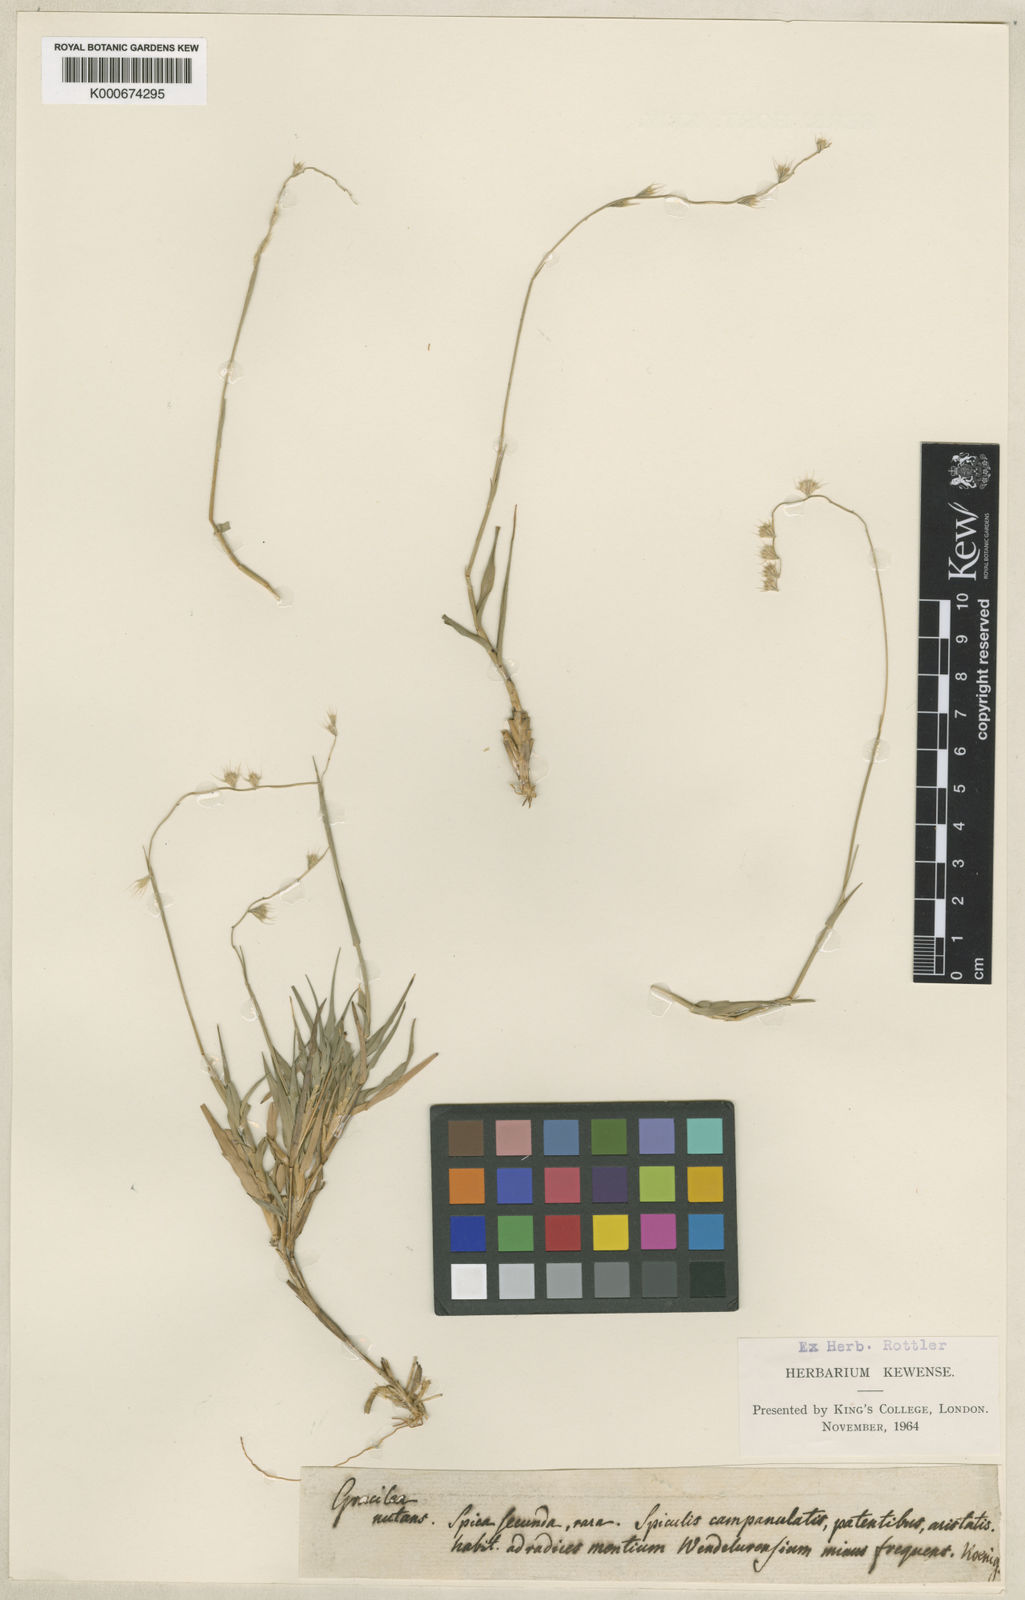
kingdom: Plantae
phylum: Tracheophyta
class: Liliopsida
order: Poales
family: Poaceae
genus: Melanocenchris
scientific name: Melanocenchris rothiana
